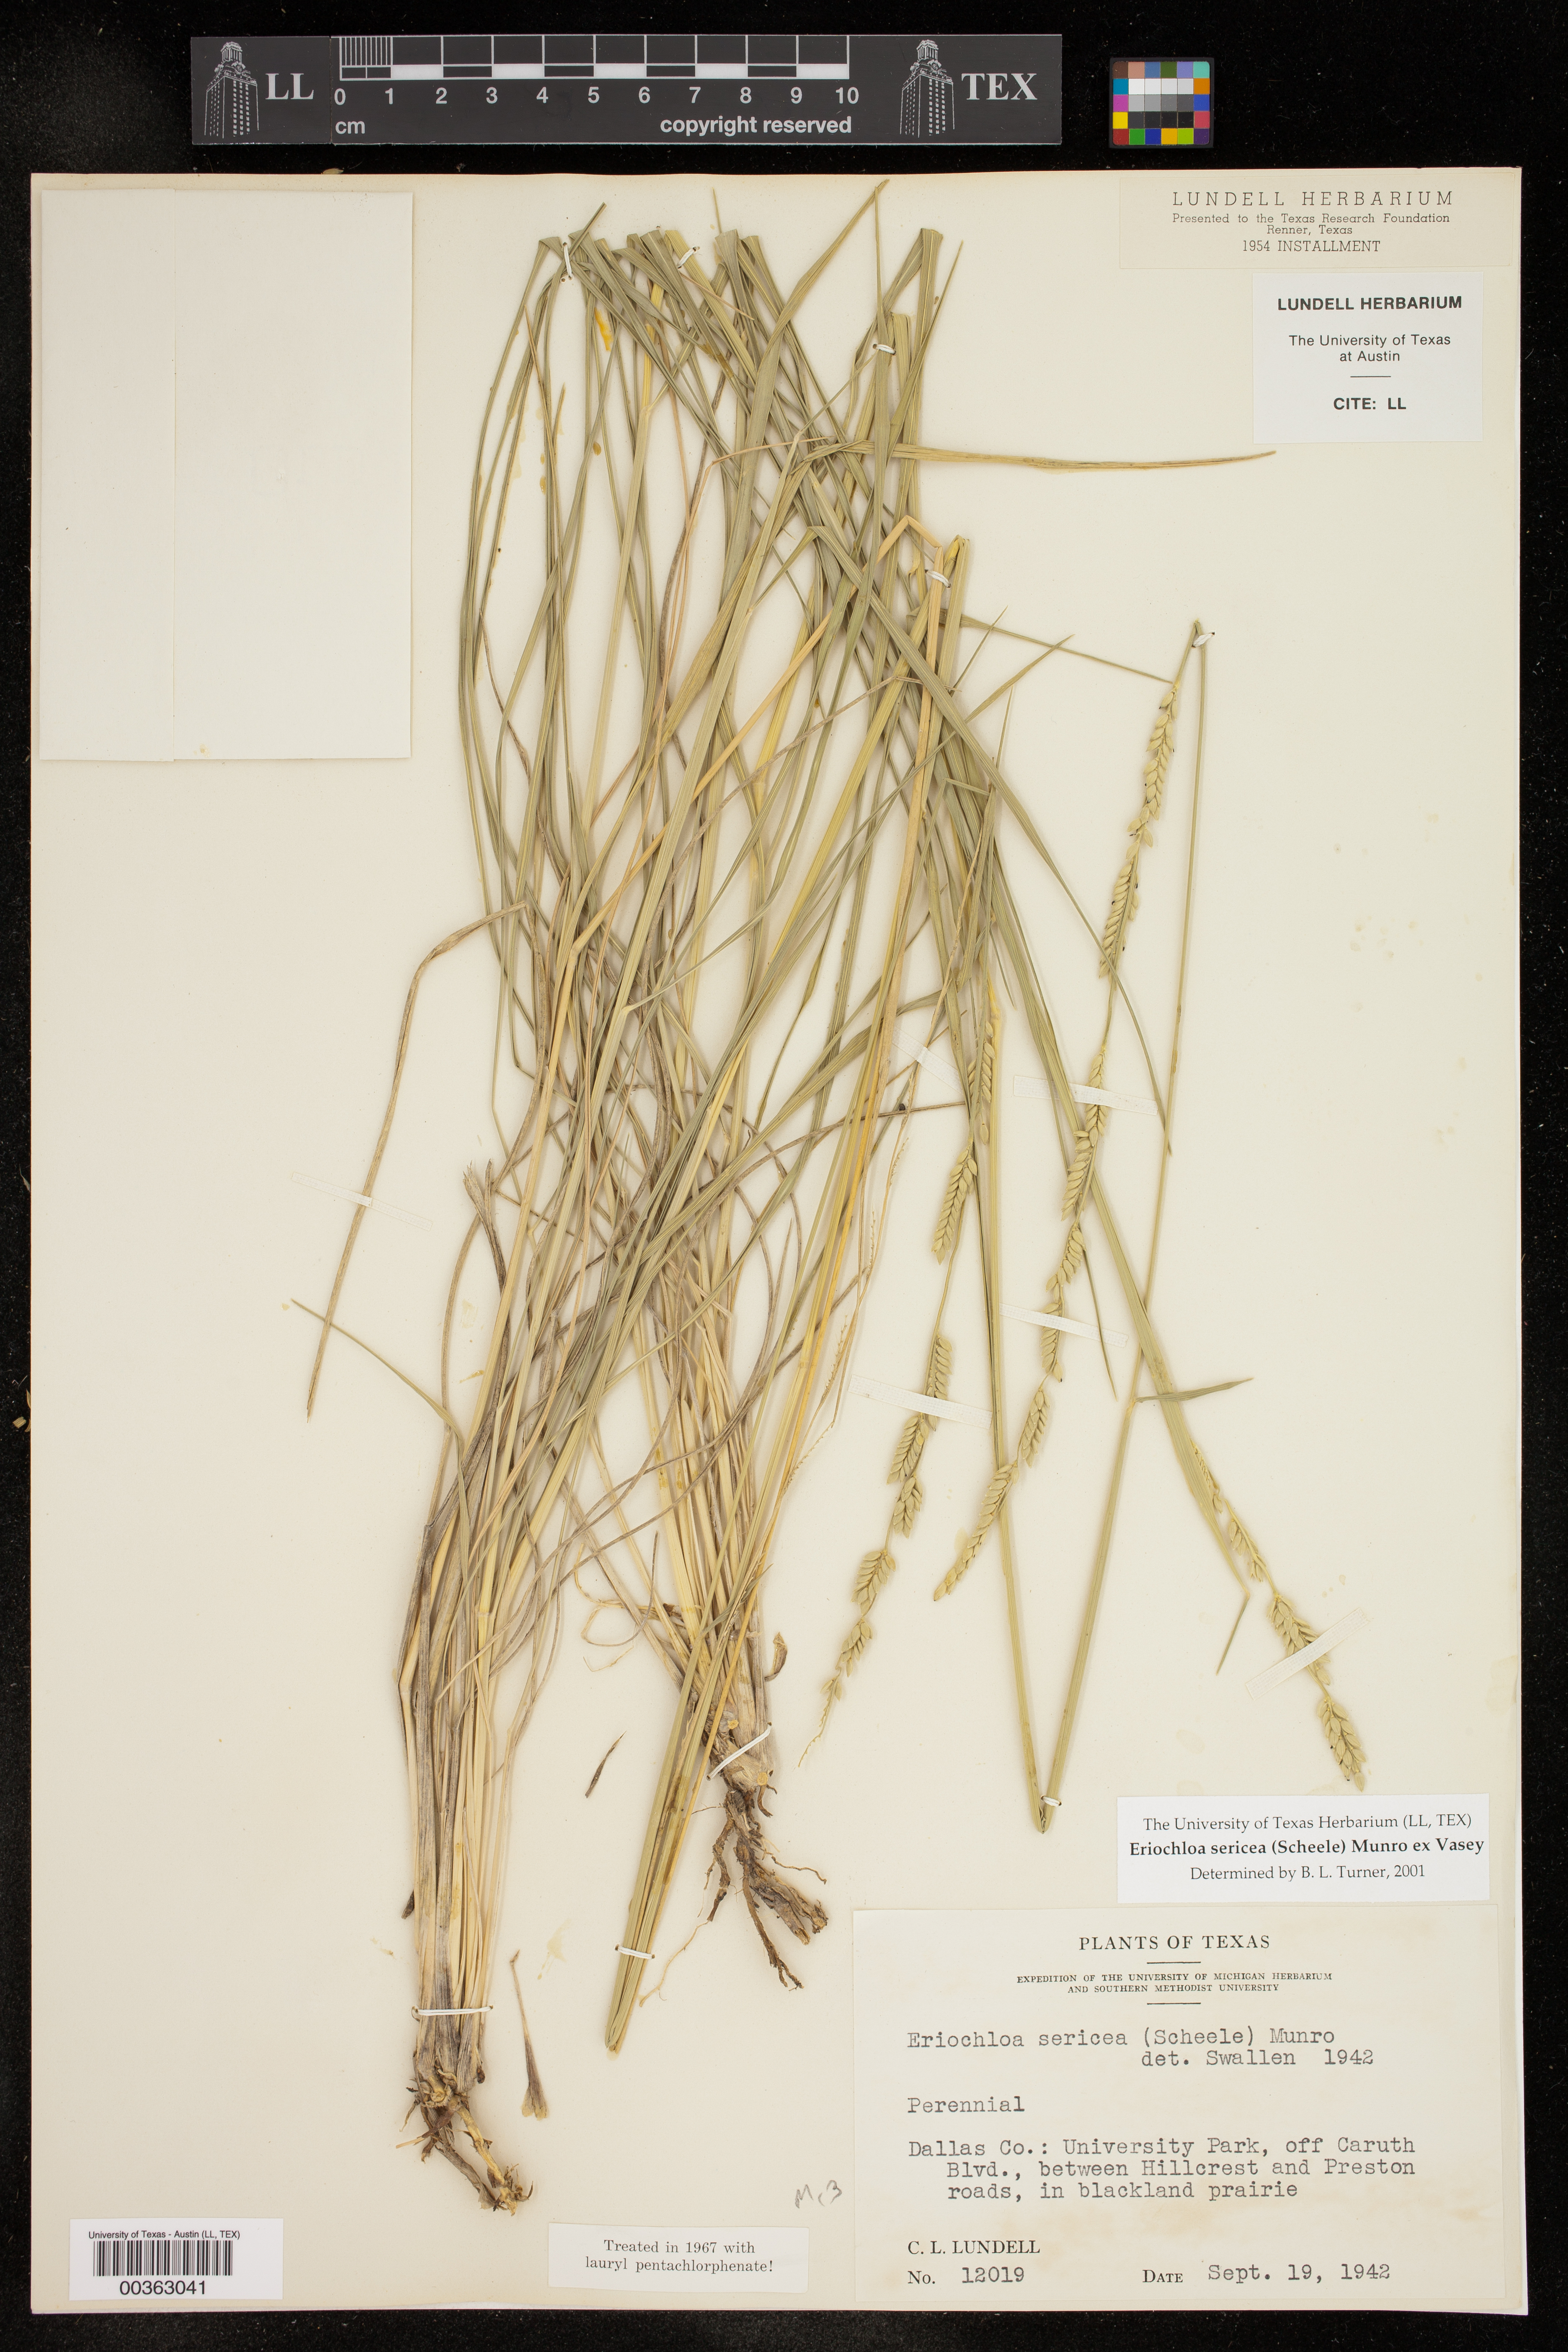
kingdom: Plantae
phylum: Tracheophyta
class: Liliopsida
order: Poales
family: Poaceae
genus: Eriochloa
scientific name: Eriochloa sericea
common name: Texas cup grass
